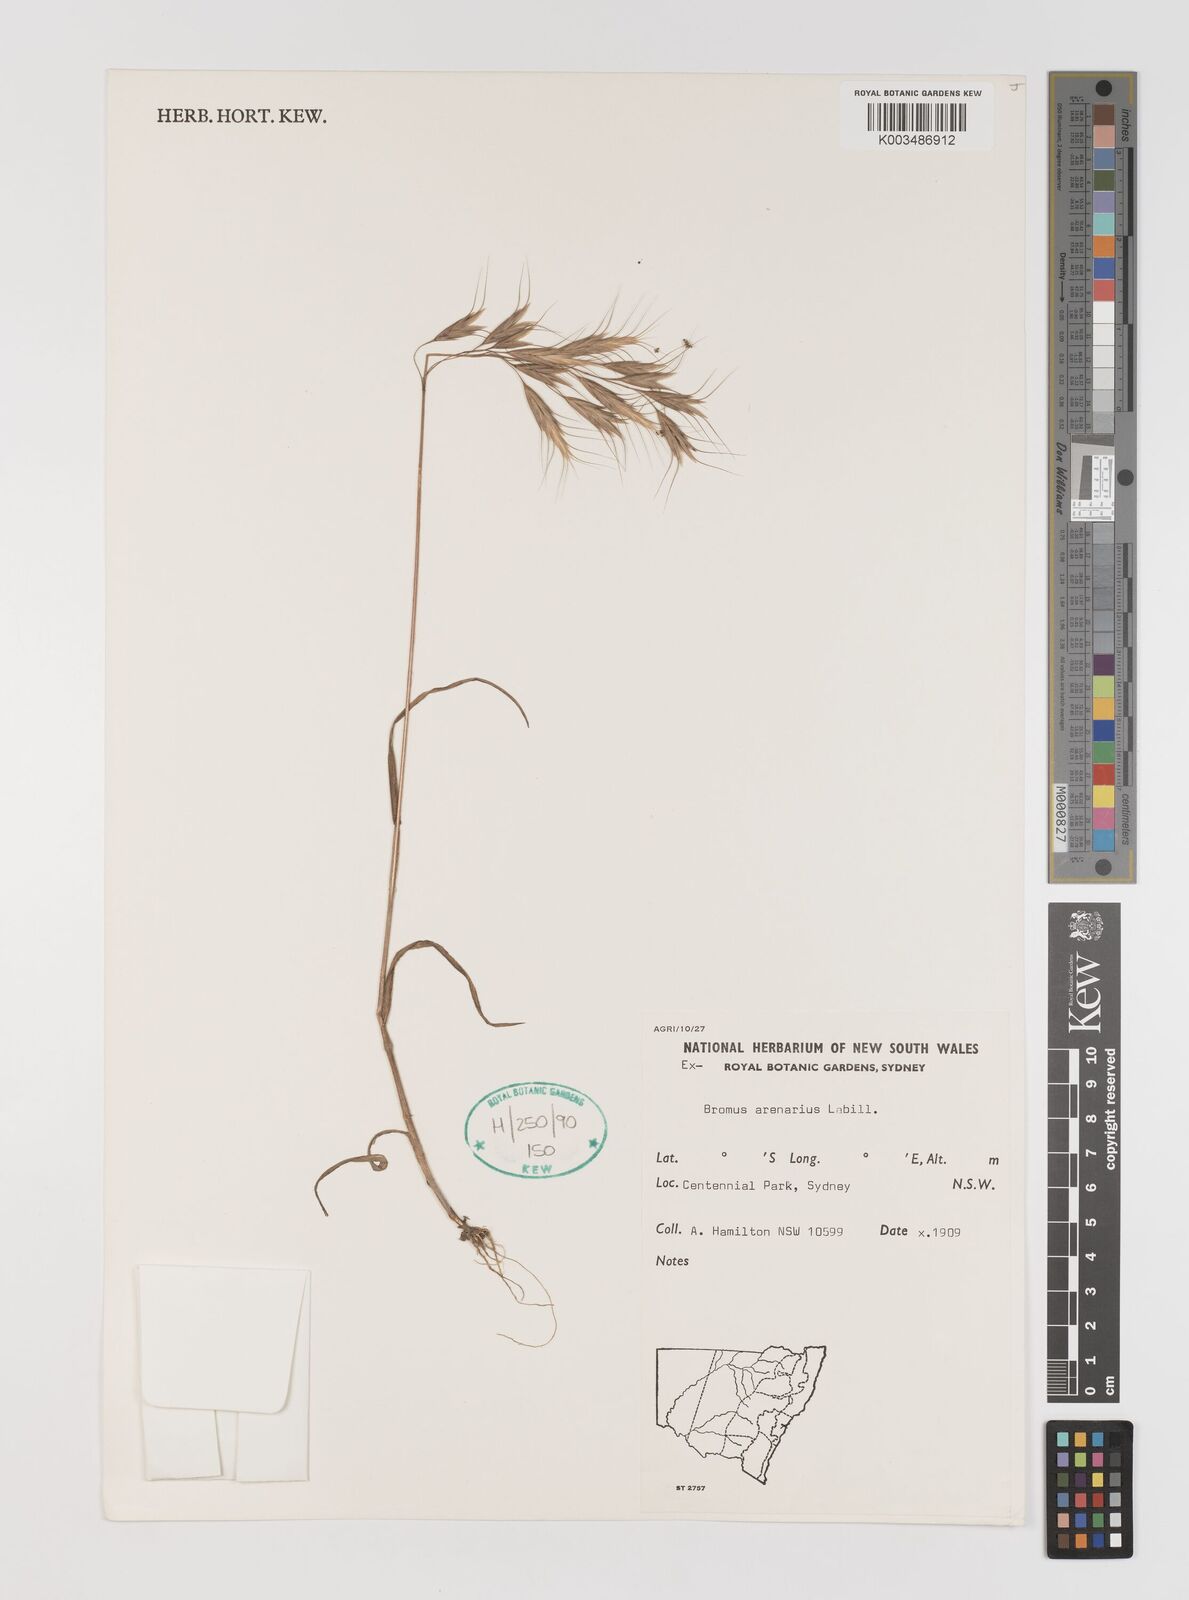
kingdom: Plantae
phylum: Tracheophyta
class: Liliopsida
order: Poales
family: Poaceae
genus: Bromus
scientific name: Bromus arenarius
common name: Australian brome
